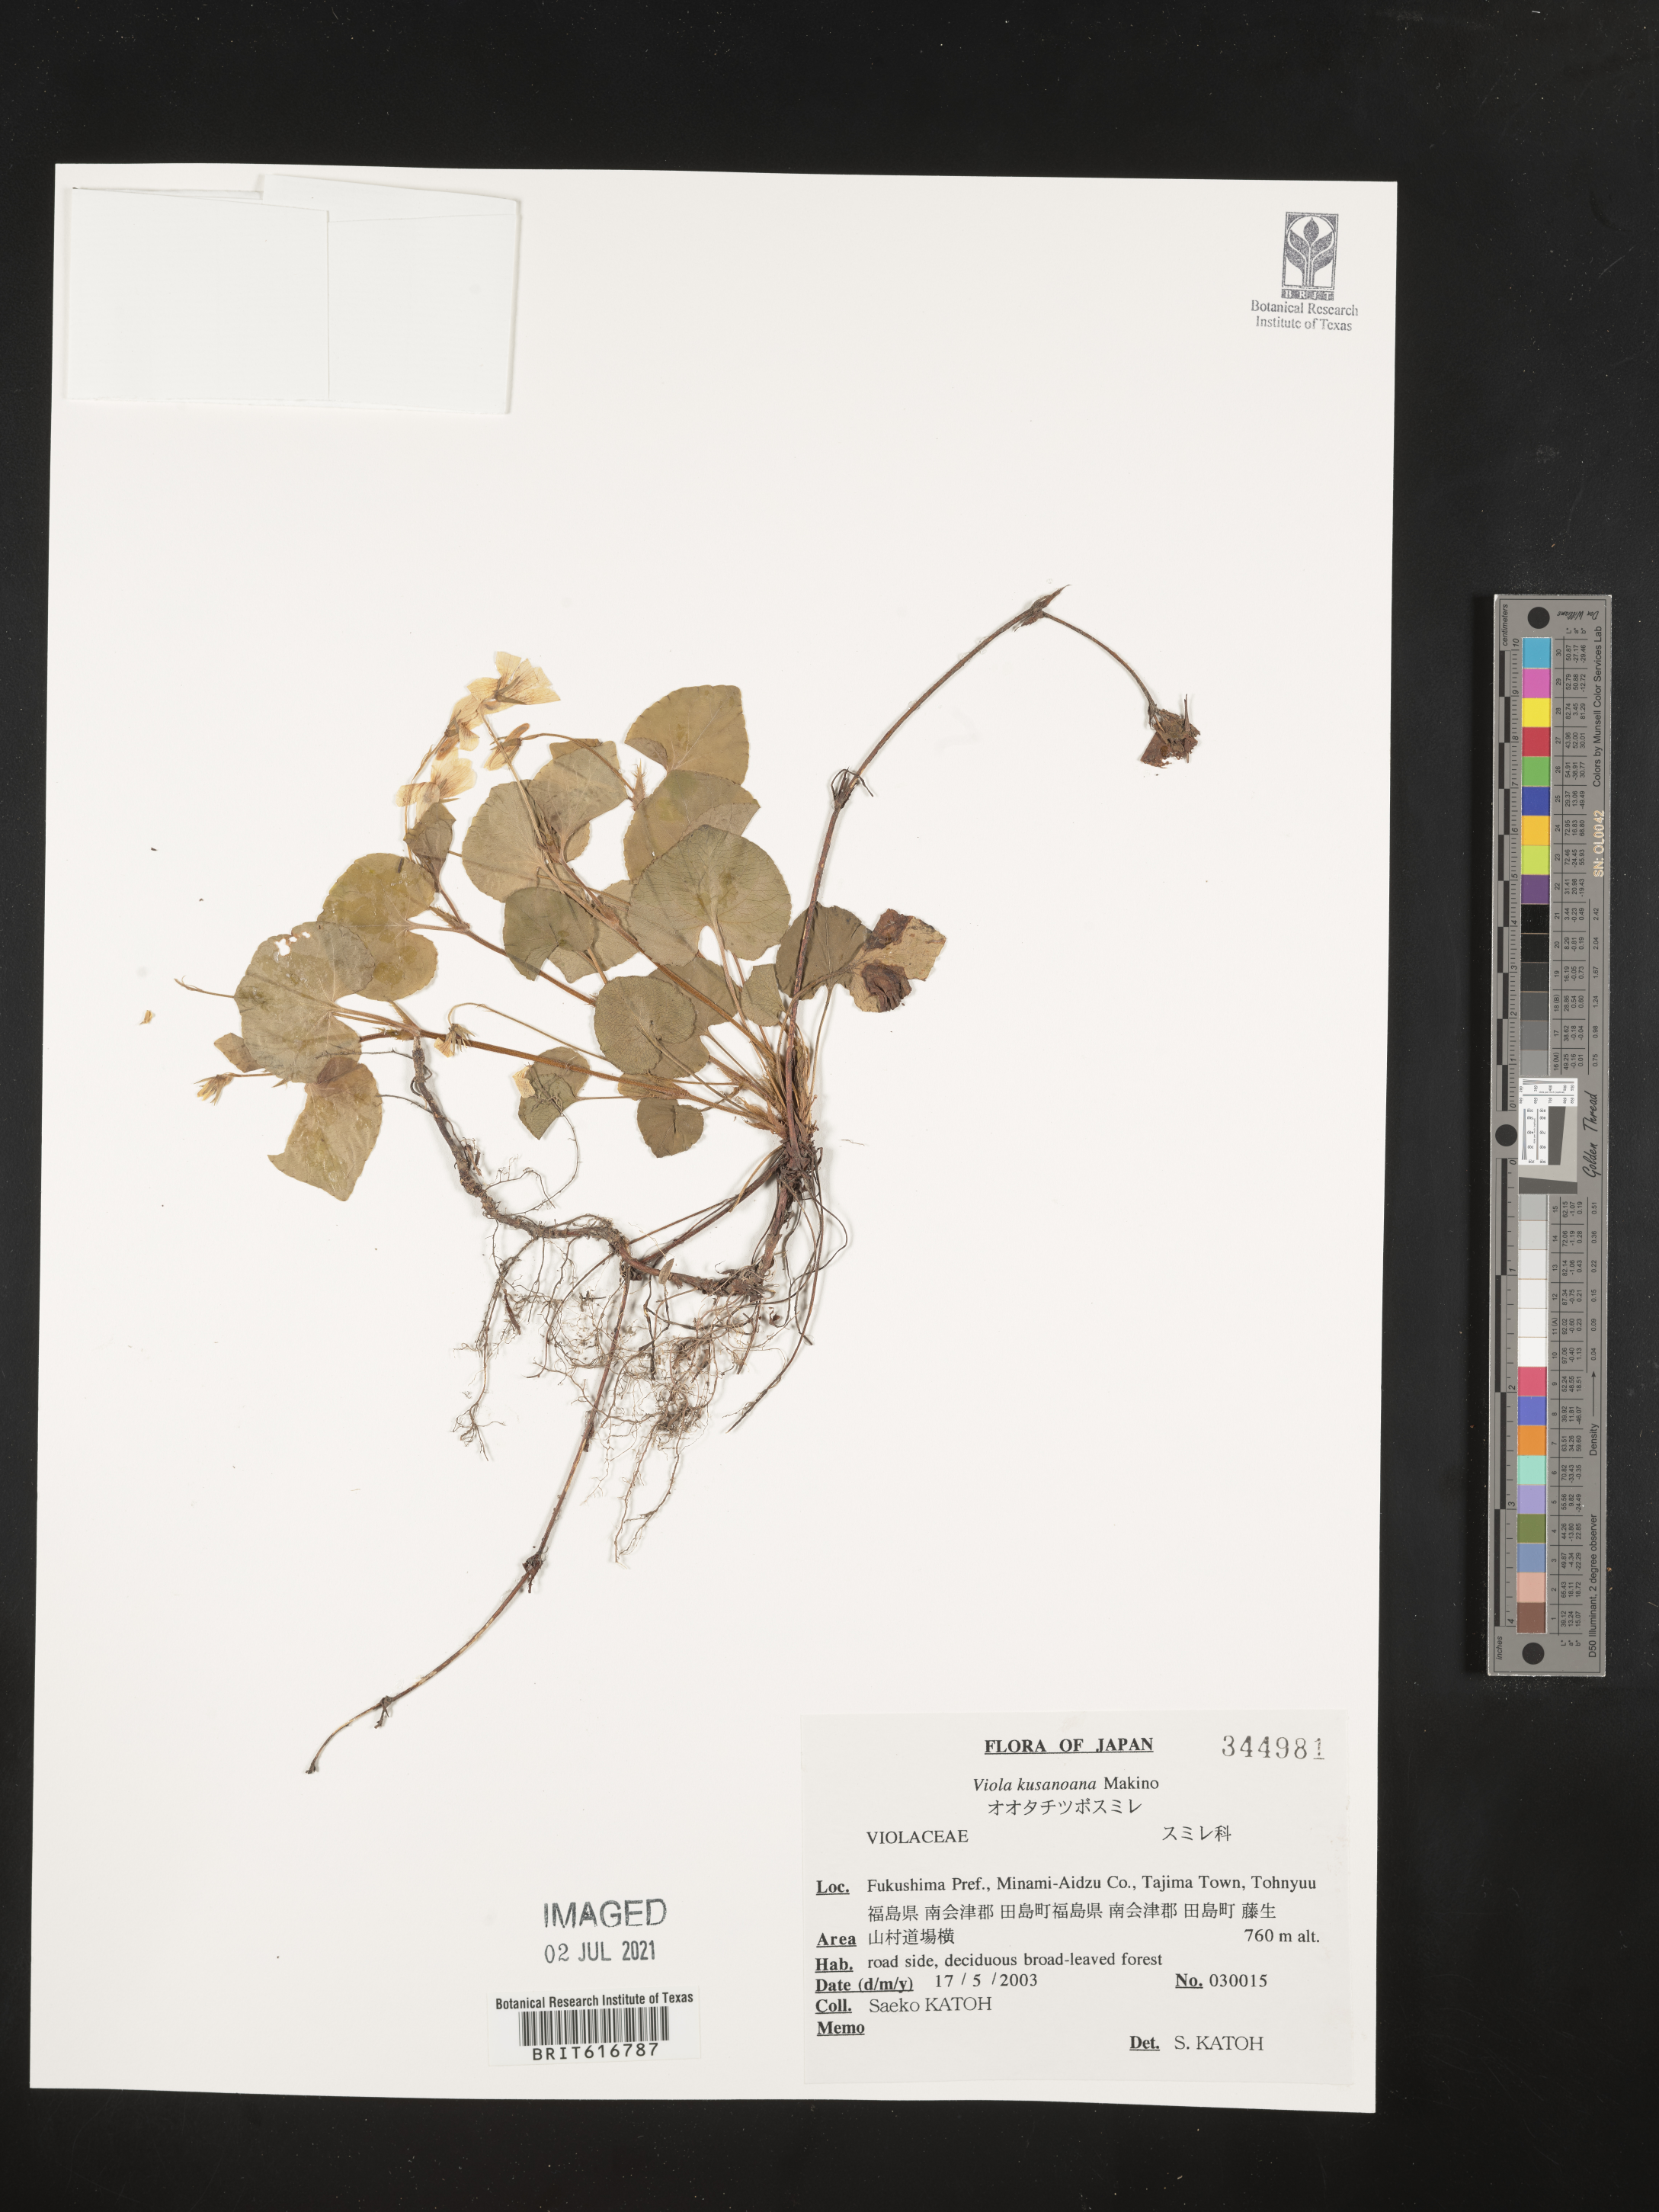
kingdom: Plantae
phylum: Tracheophyta
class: Magnoliopsida
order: Malpighiales
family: Violaceae
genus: Viola
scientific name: Viola kusanoana
